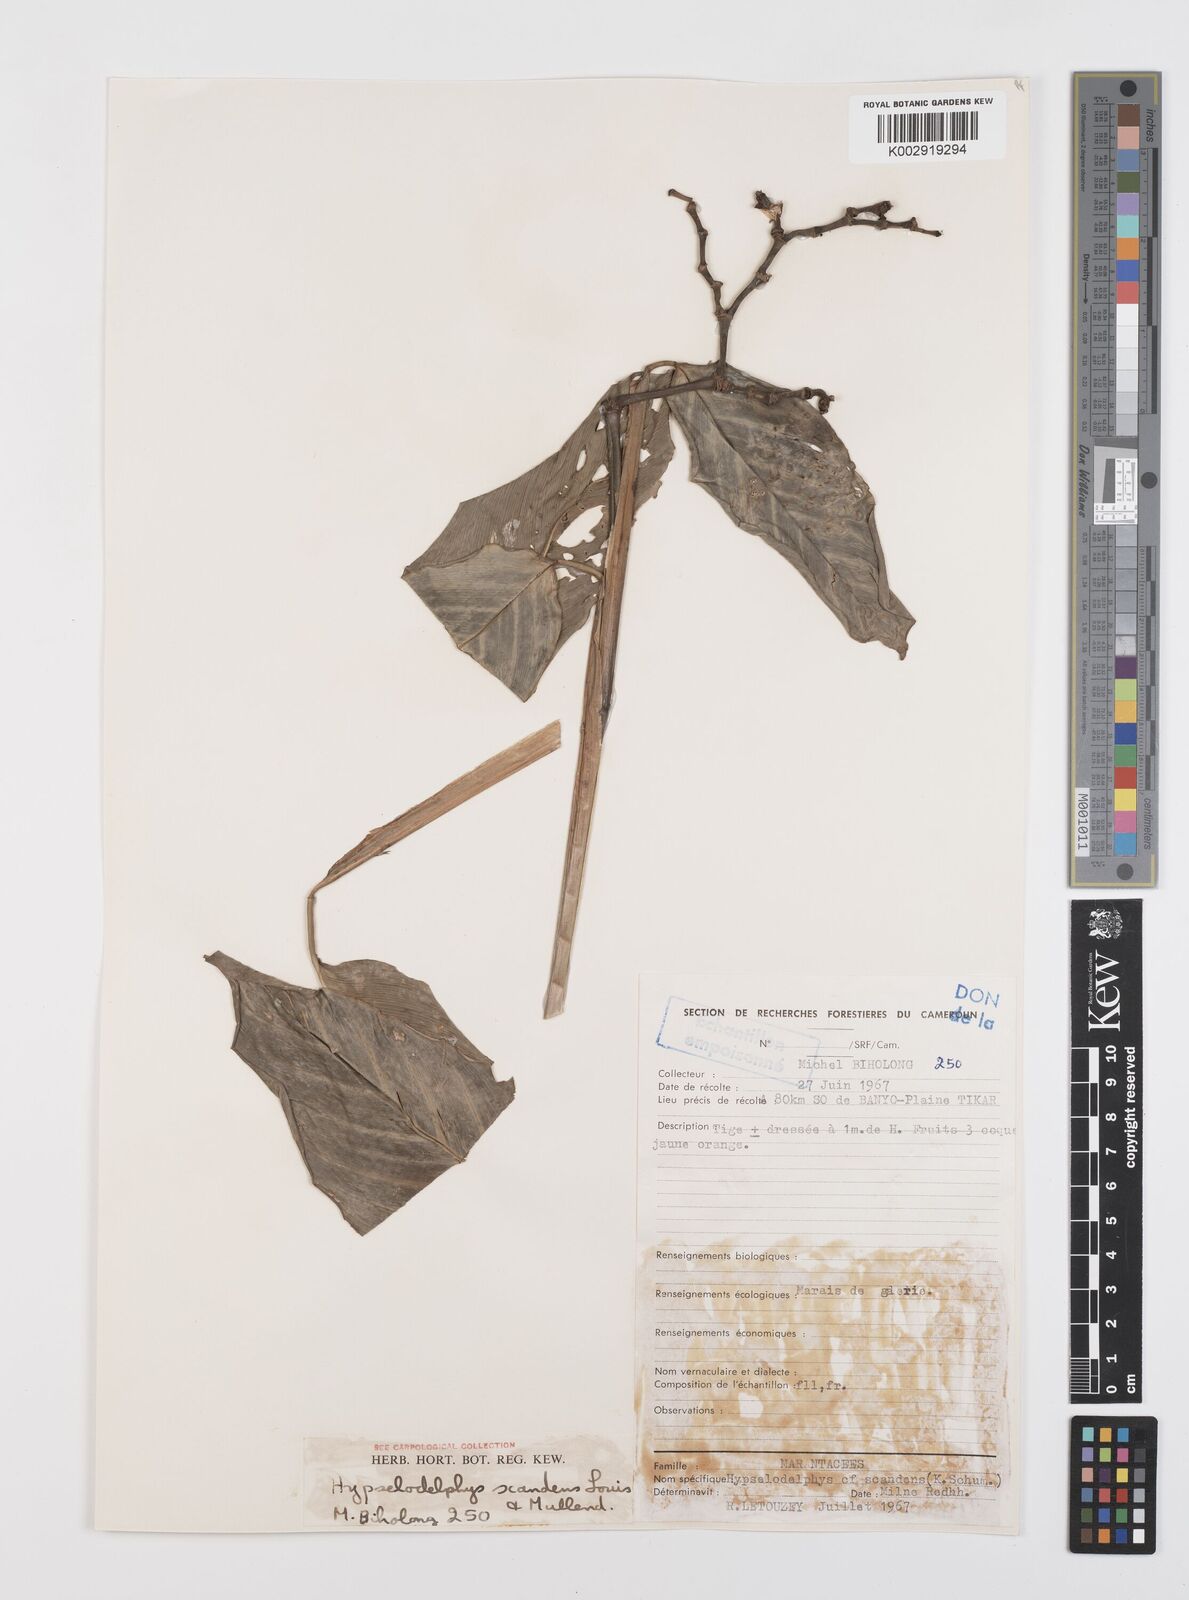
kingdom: Plantae
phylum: Tracheophyta
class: Liliopsida
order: Zingiberales
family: Marantaceae
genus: Hypselodelphys
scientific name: Hypselodelphys scandens
